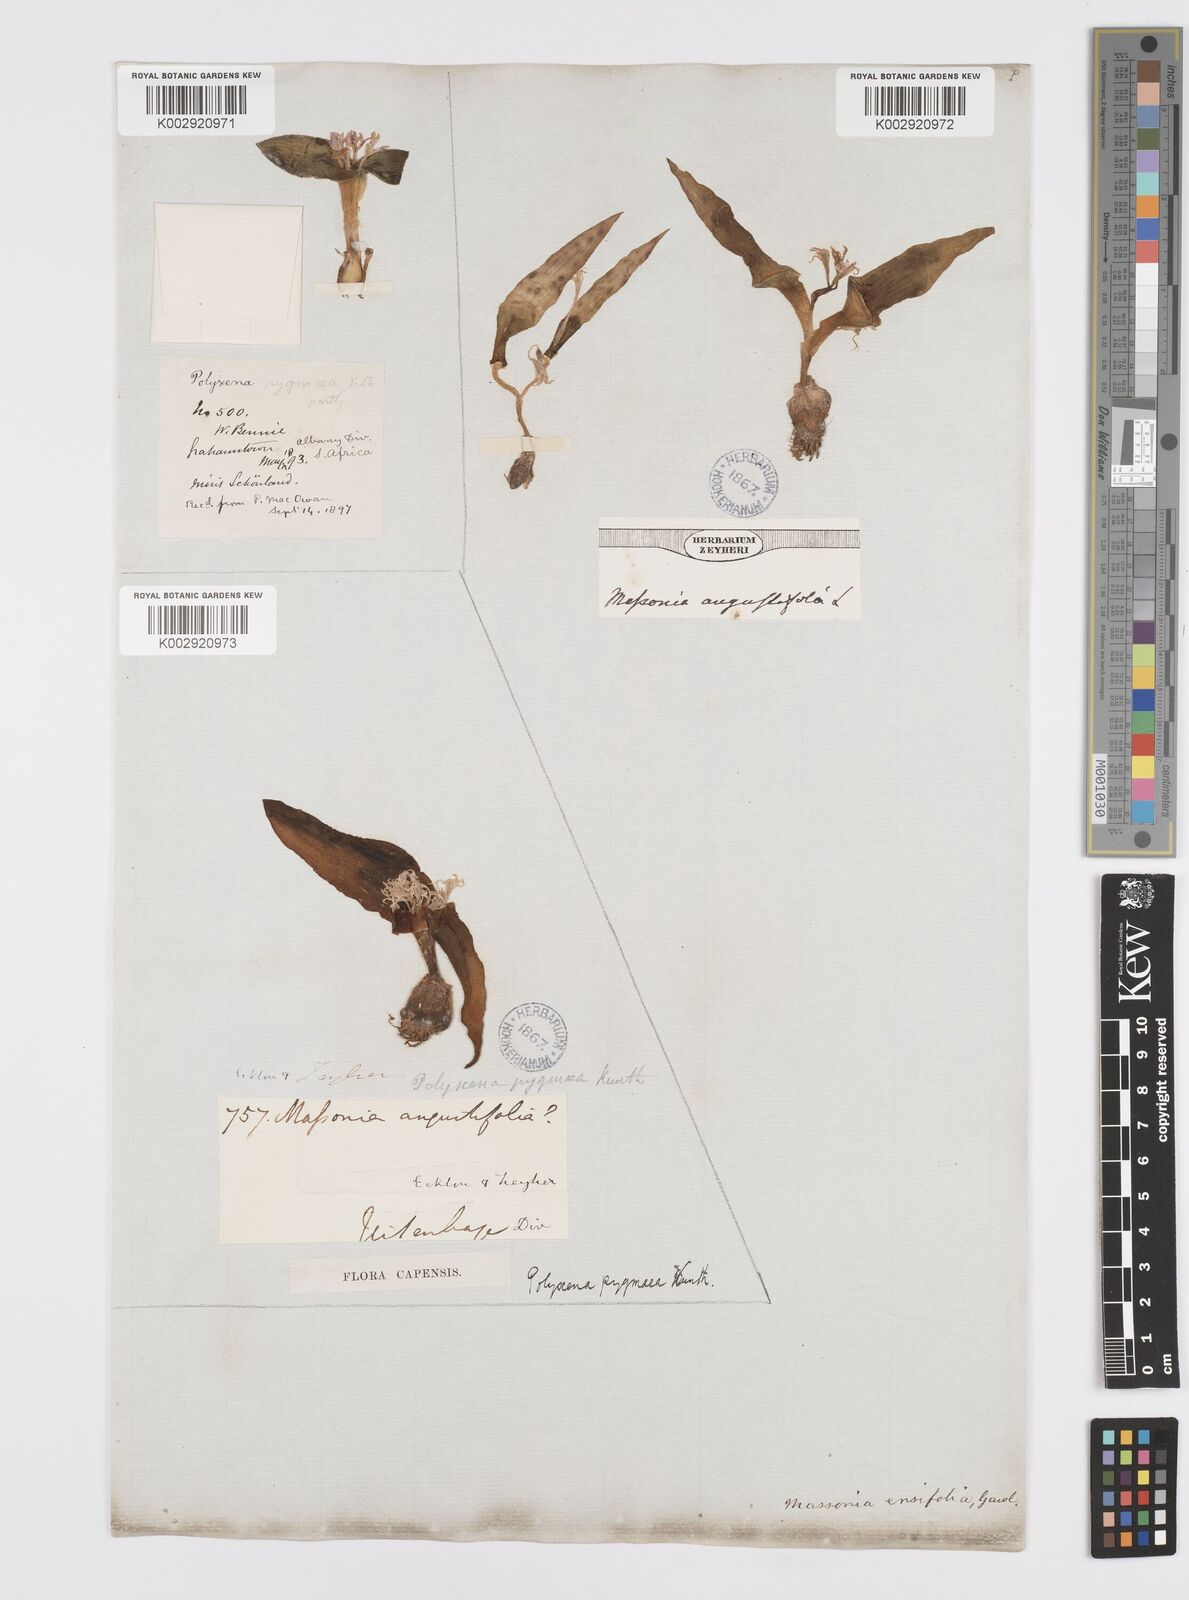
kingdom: Plantae
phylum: Tracheophyta
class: Liliopsida
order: Asparagales
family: Asparagaceae
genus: Lachenalia
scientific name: Lachenalia ensifolia
